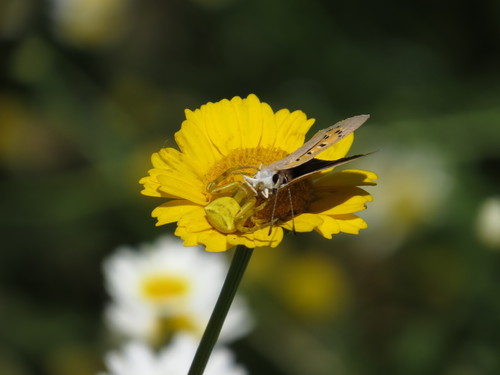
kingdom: Animalia
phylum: Arthropoda
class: Arachnida
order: Araneae
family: Thomisidae
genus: Thomisus
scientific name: Thomisus onustus
